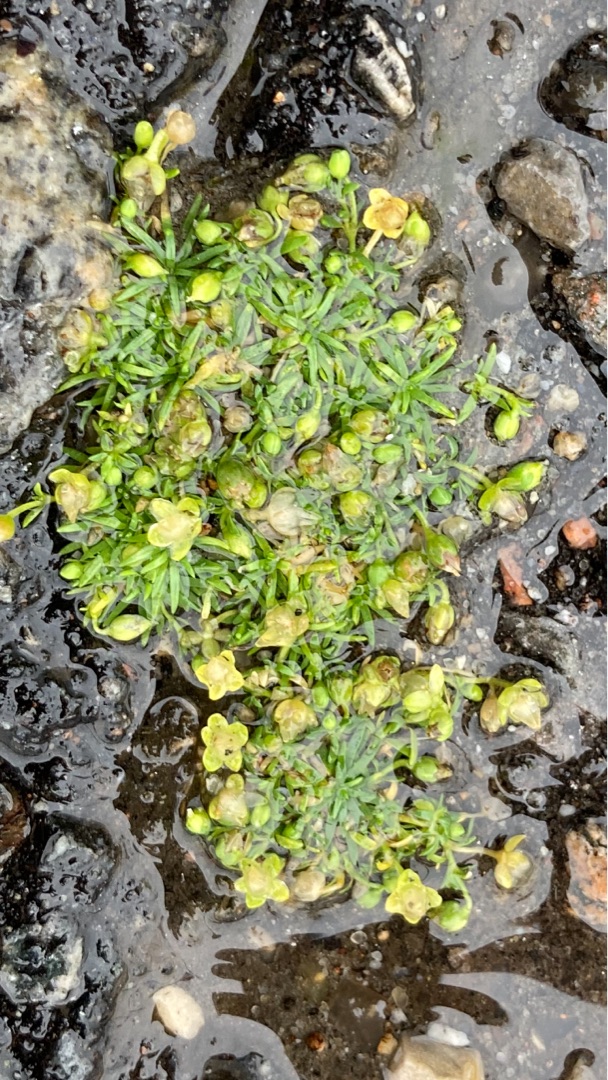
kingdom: Plantae
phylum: Tracheophyta
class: Magnoliopsida
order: Caryophyllales
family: Caryophyllaceae
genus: Sagina
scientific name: Sagina procumbens
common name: Almindelig firling
